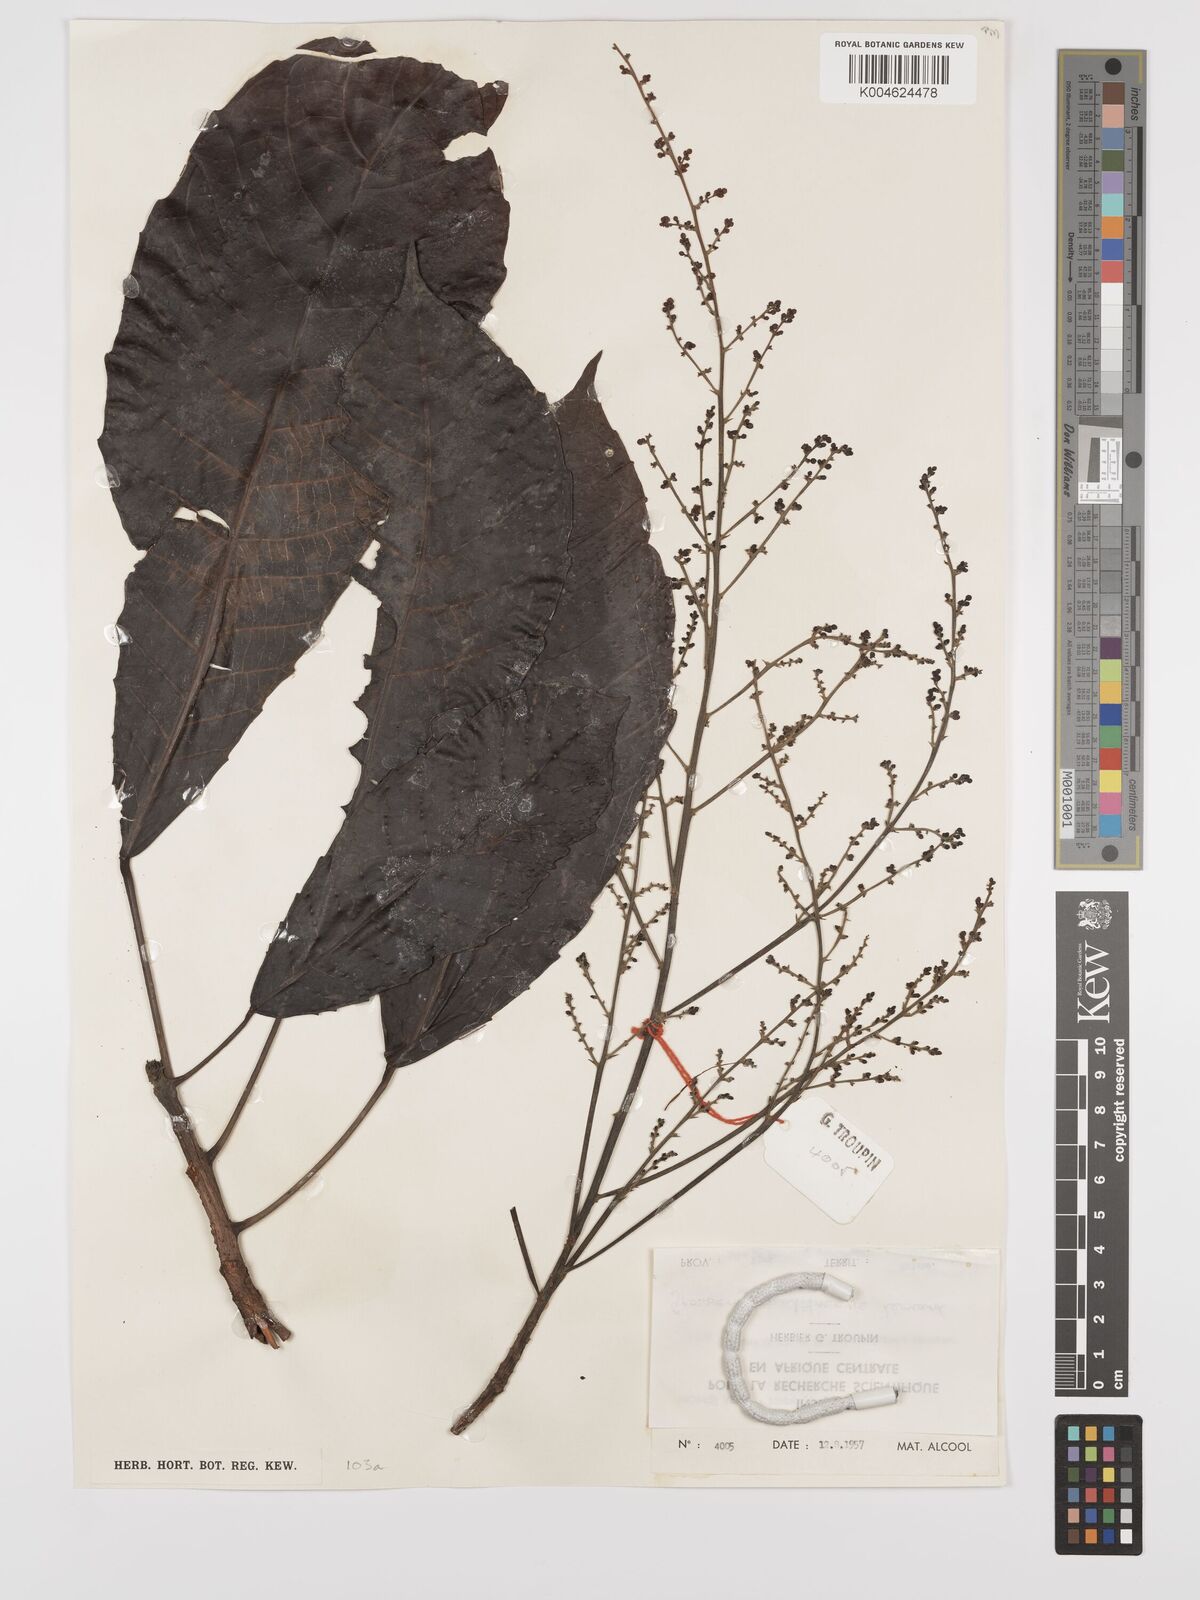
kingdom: Plantae
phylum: Tracheophyta
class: Magnoliopsida
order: Malpighiales
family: Euphorbiaceae
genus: Grossera
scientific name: Grossera multinervis
